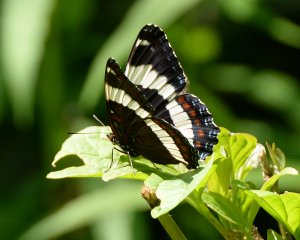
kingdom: Animalia
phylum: Arthropoda
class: Insecta
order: Lepidoptera
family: Nymphalidae
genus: Limenitis
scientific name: Limenitis arthemis
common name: Red-spotted Admiral
